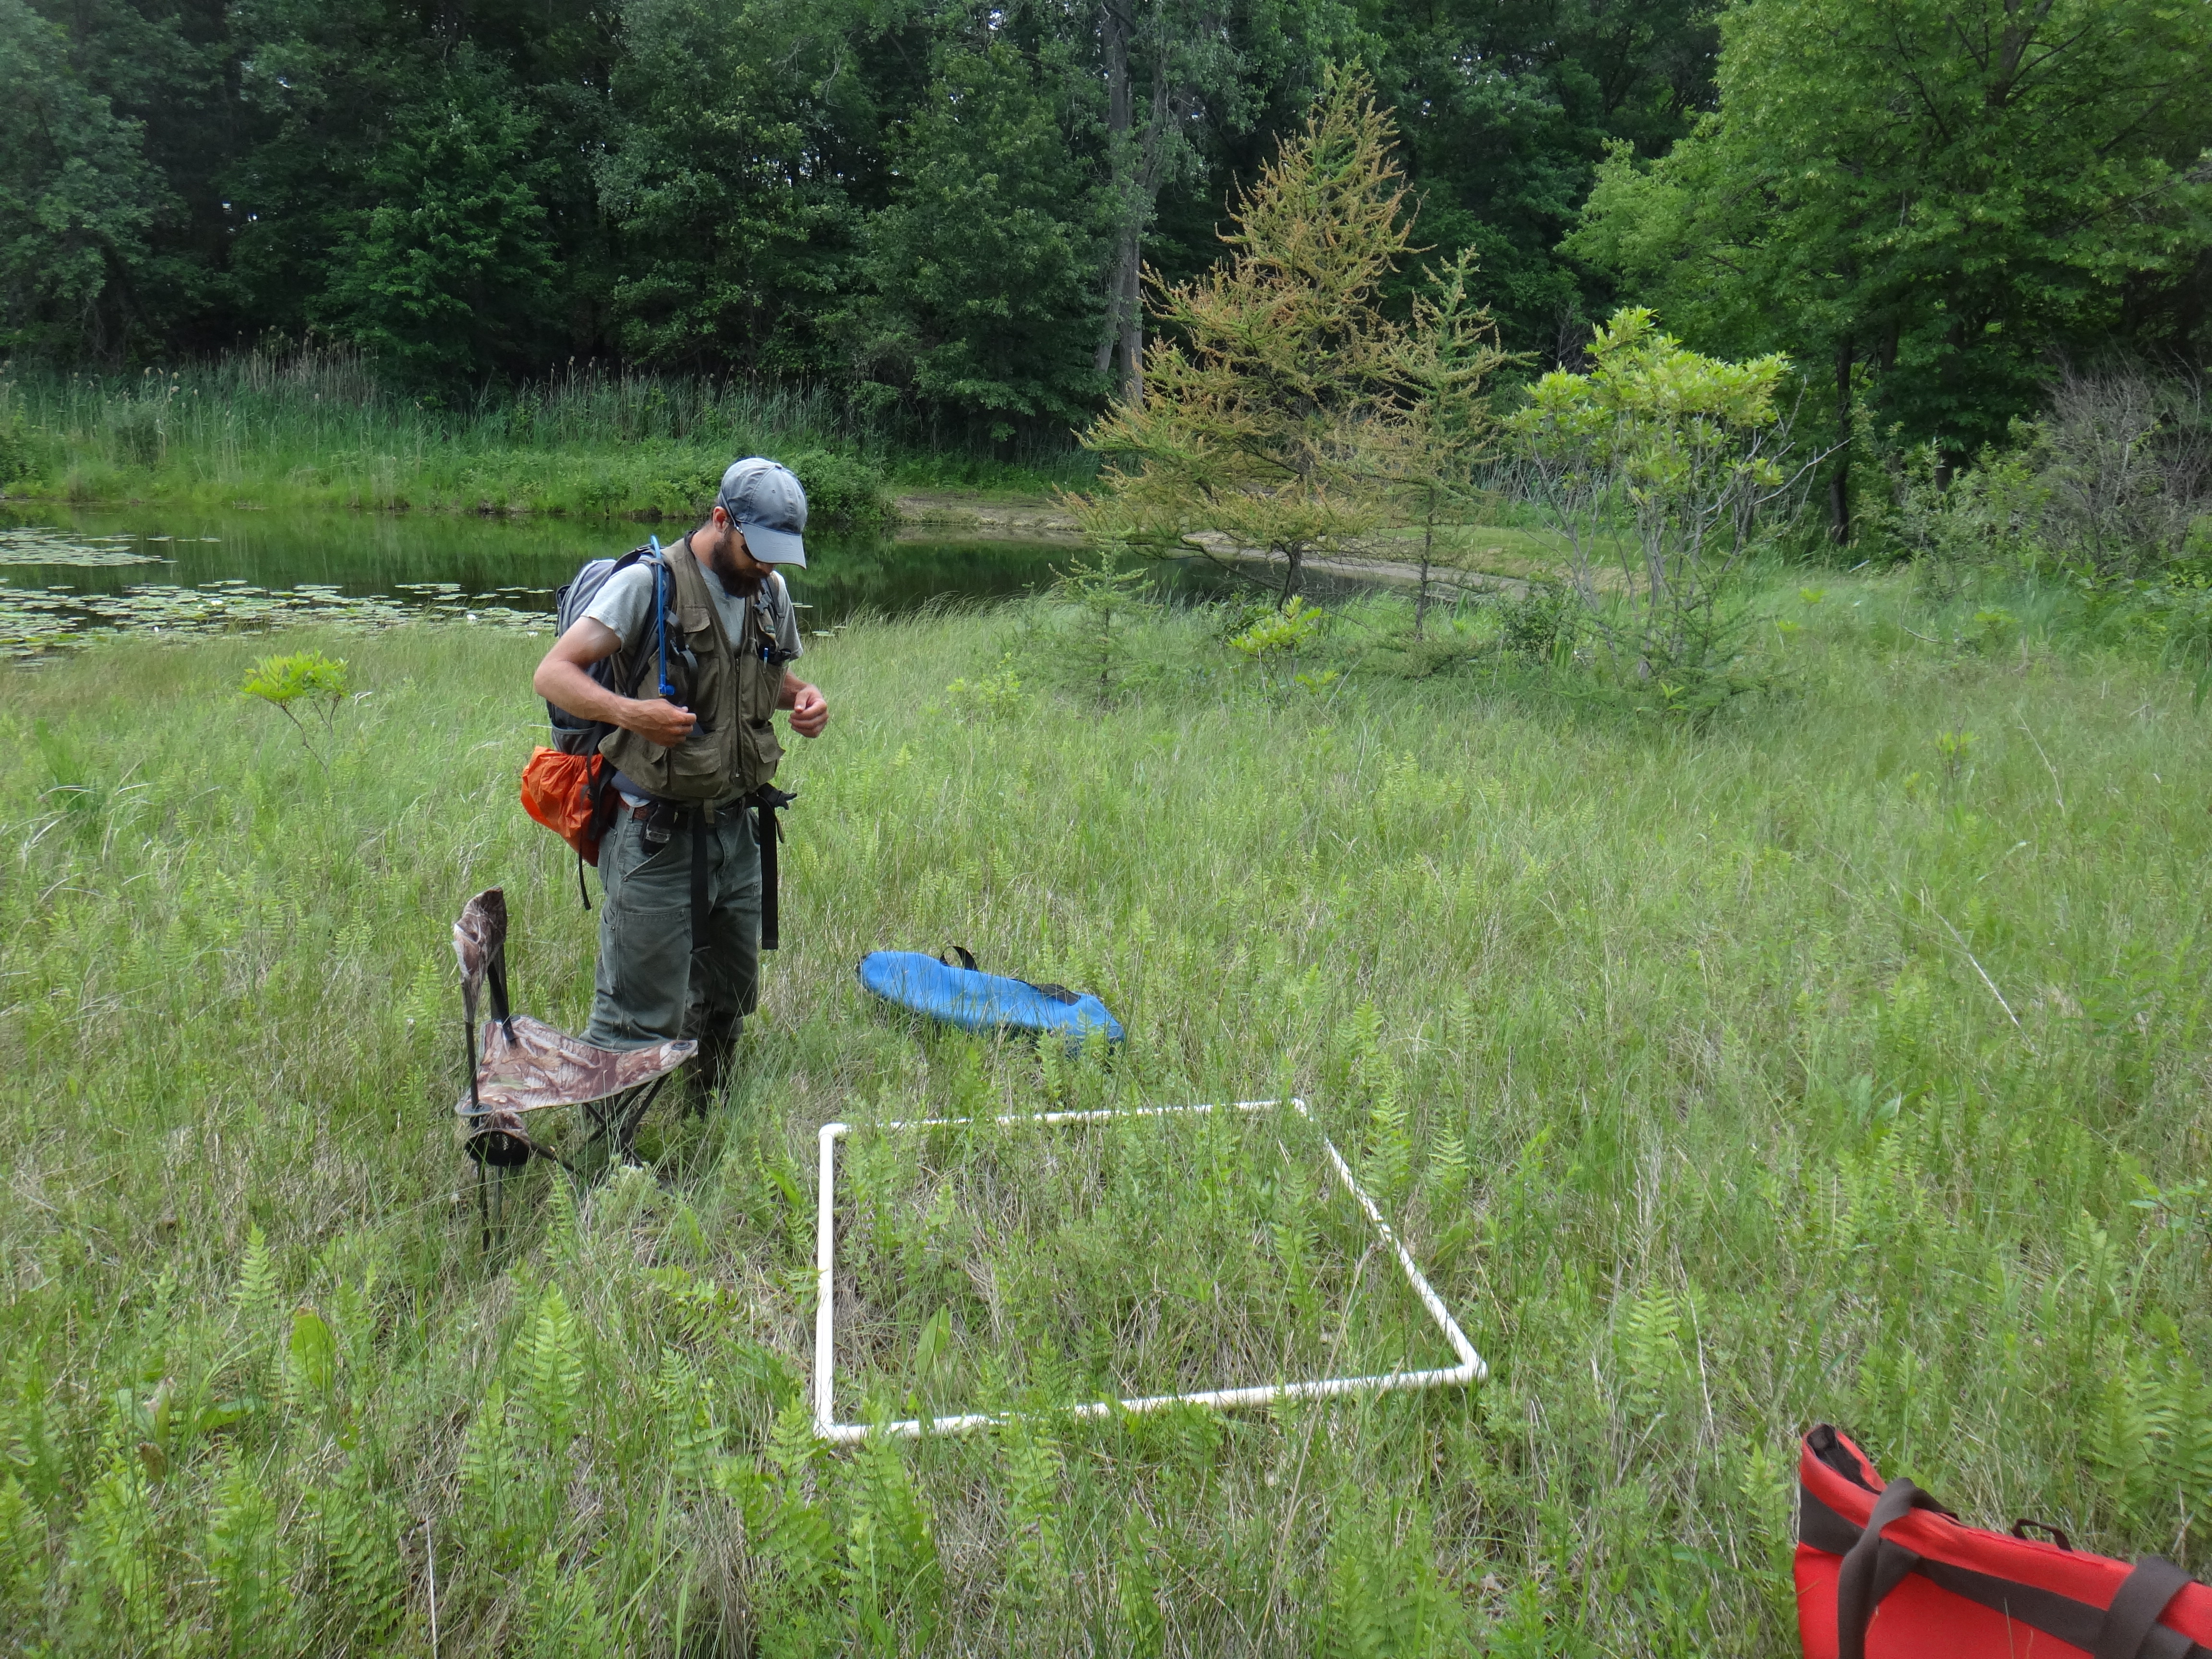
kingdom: Plantae
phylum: Tracheophyta
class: Liliopsida
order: Poales
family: Cyperaceae
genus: Carex
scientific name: Carex diandra
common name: Lesser tussock-sedge
